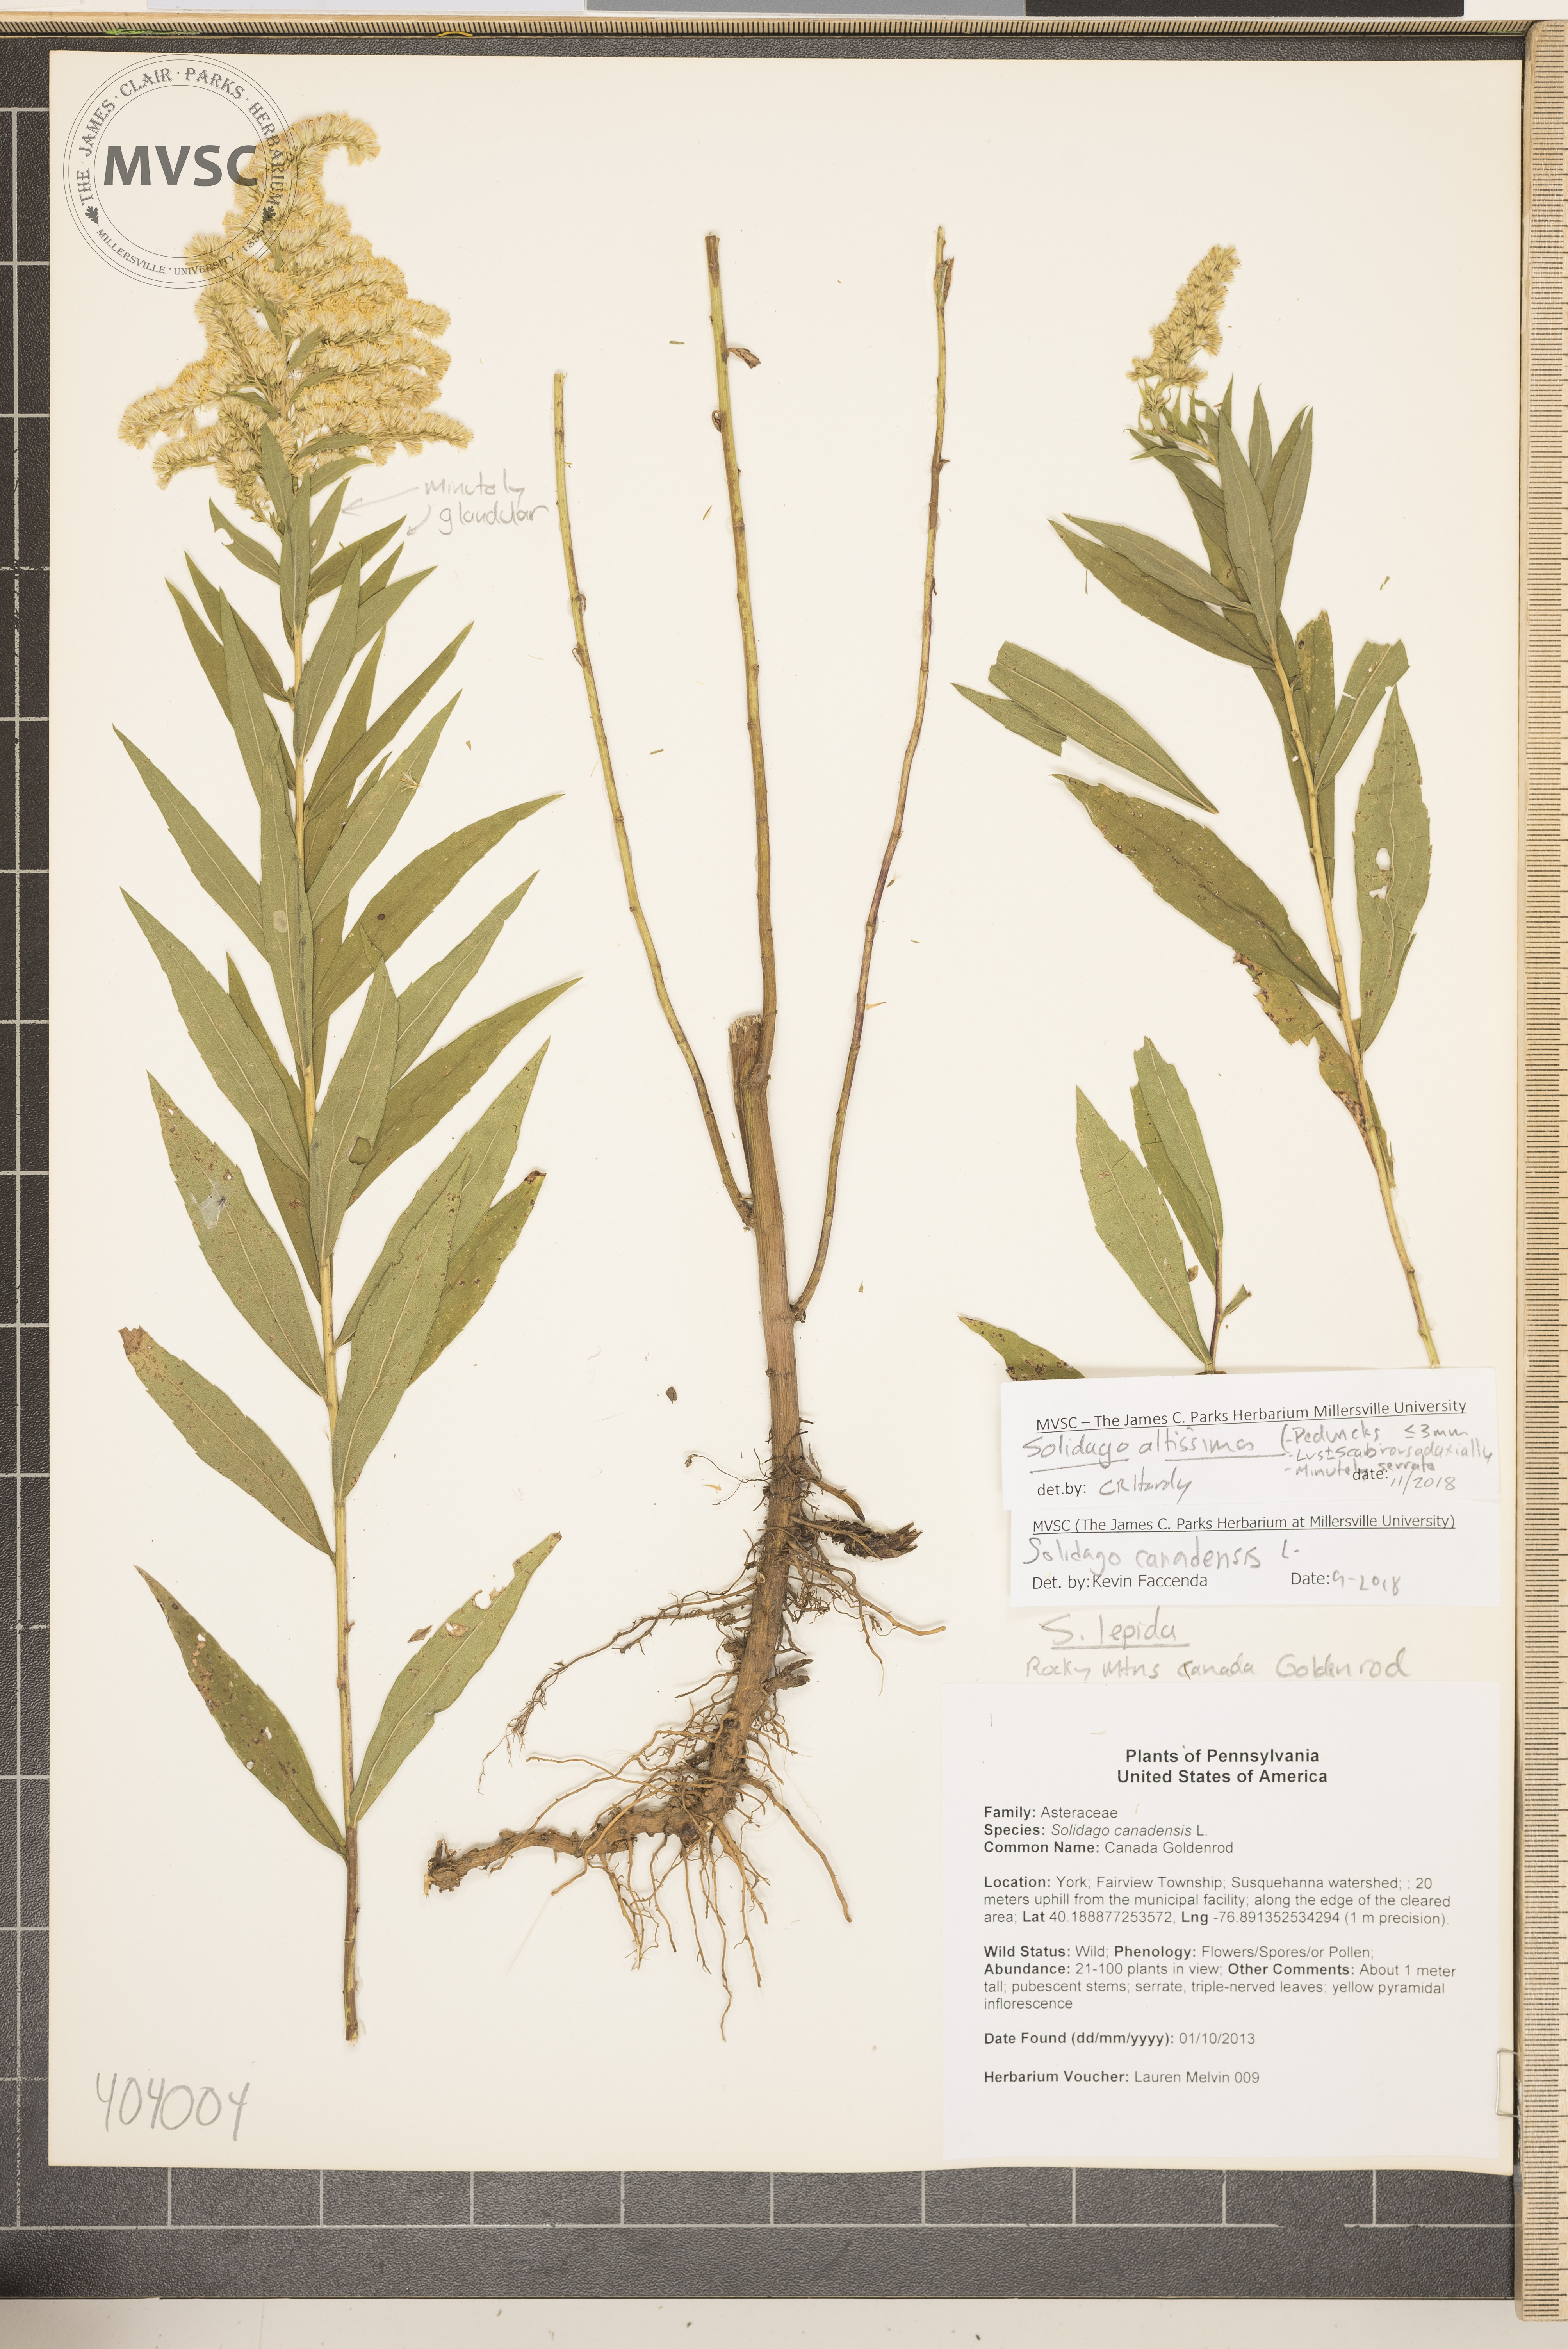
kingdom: Plantae
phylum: Tracheophyta
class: Magnoliopsida
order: Asterales
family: Asteraceae
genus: Solidago
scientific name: Solidago altissima
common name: Canada Goldenrod
